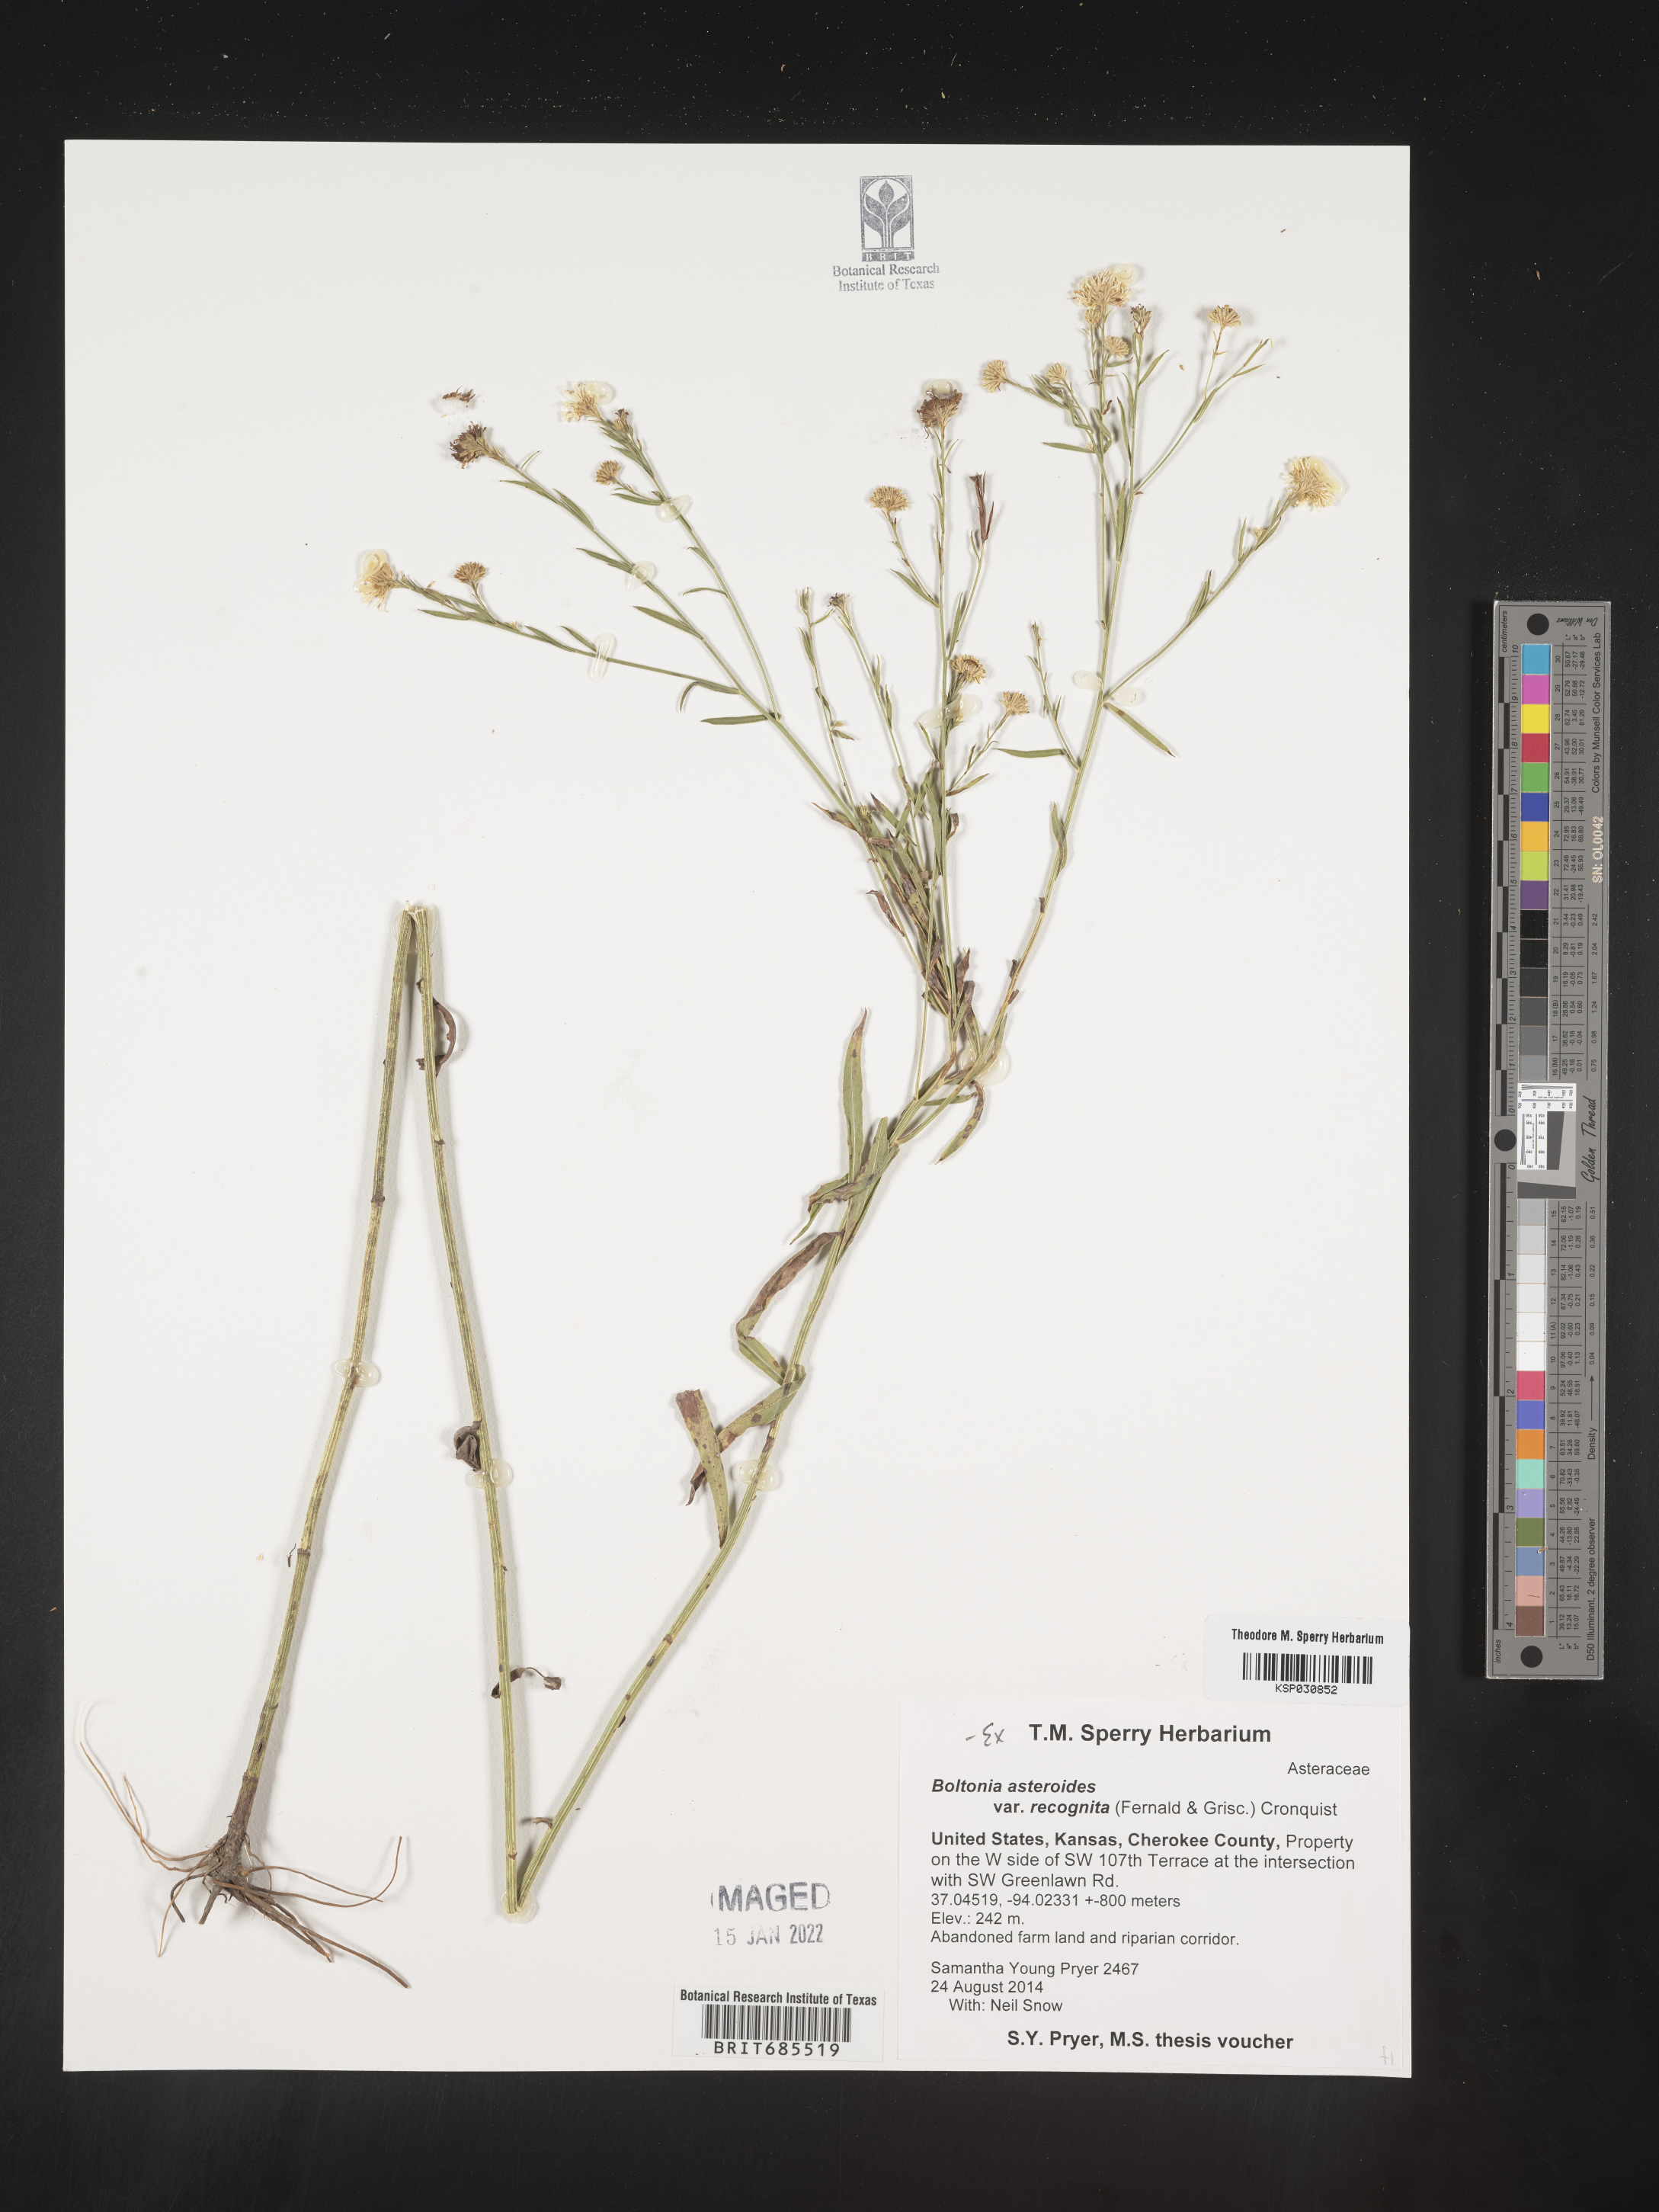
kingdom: Plantae
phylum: Tracheophyta
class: Magnoliopsida
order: Asterales
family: Asteraceae
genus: Boltonia
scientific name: Boltonia asteroides
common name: False chamomile
